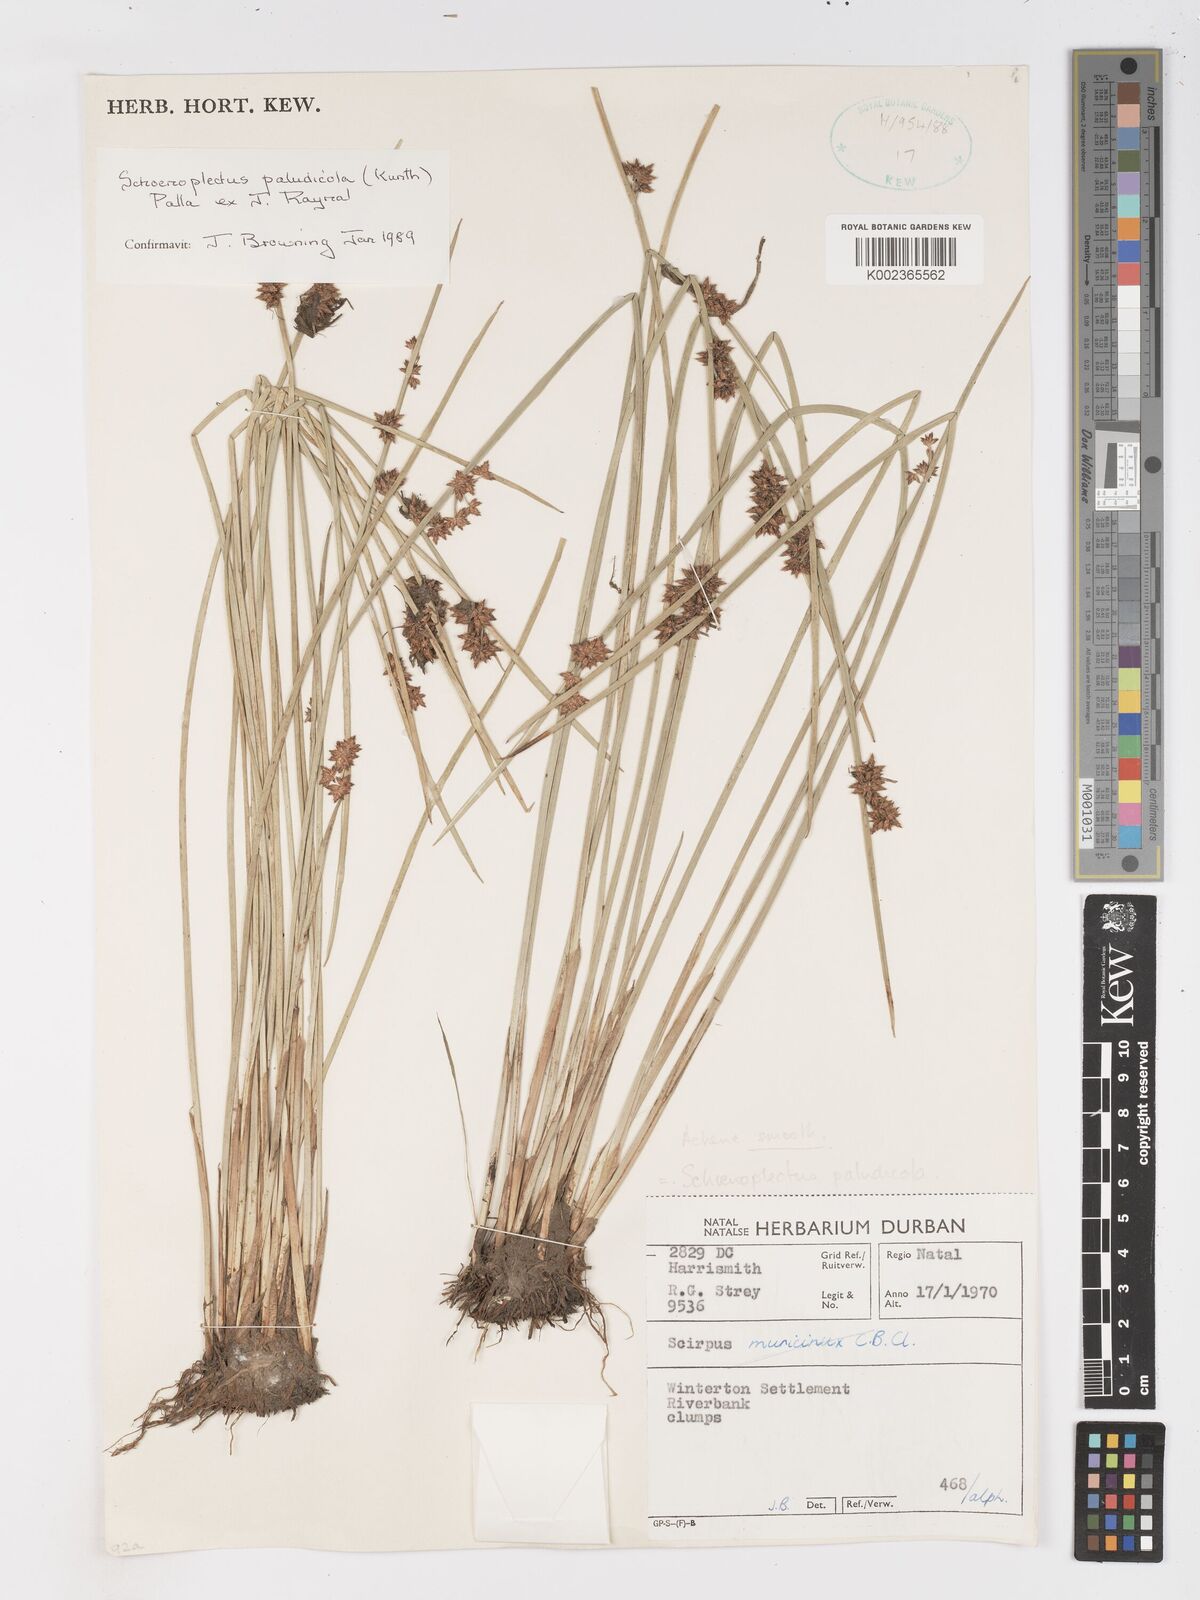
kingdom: Plantae
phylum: Tracheophyta
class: Liliopsida
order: Poales
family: Cyperaceae
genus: Schoenoplectiella
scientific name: Schoenoplectiella paludicola
